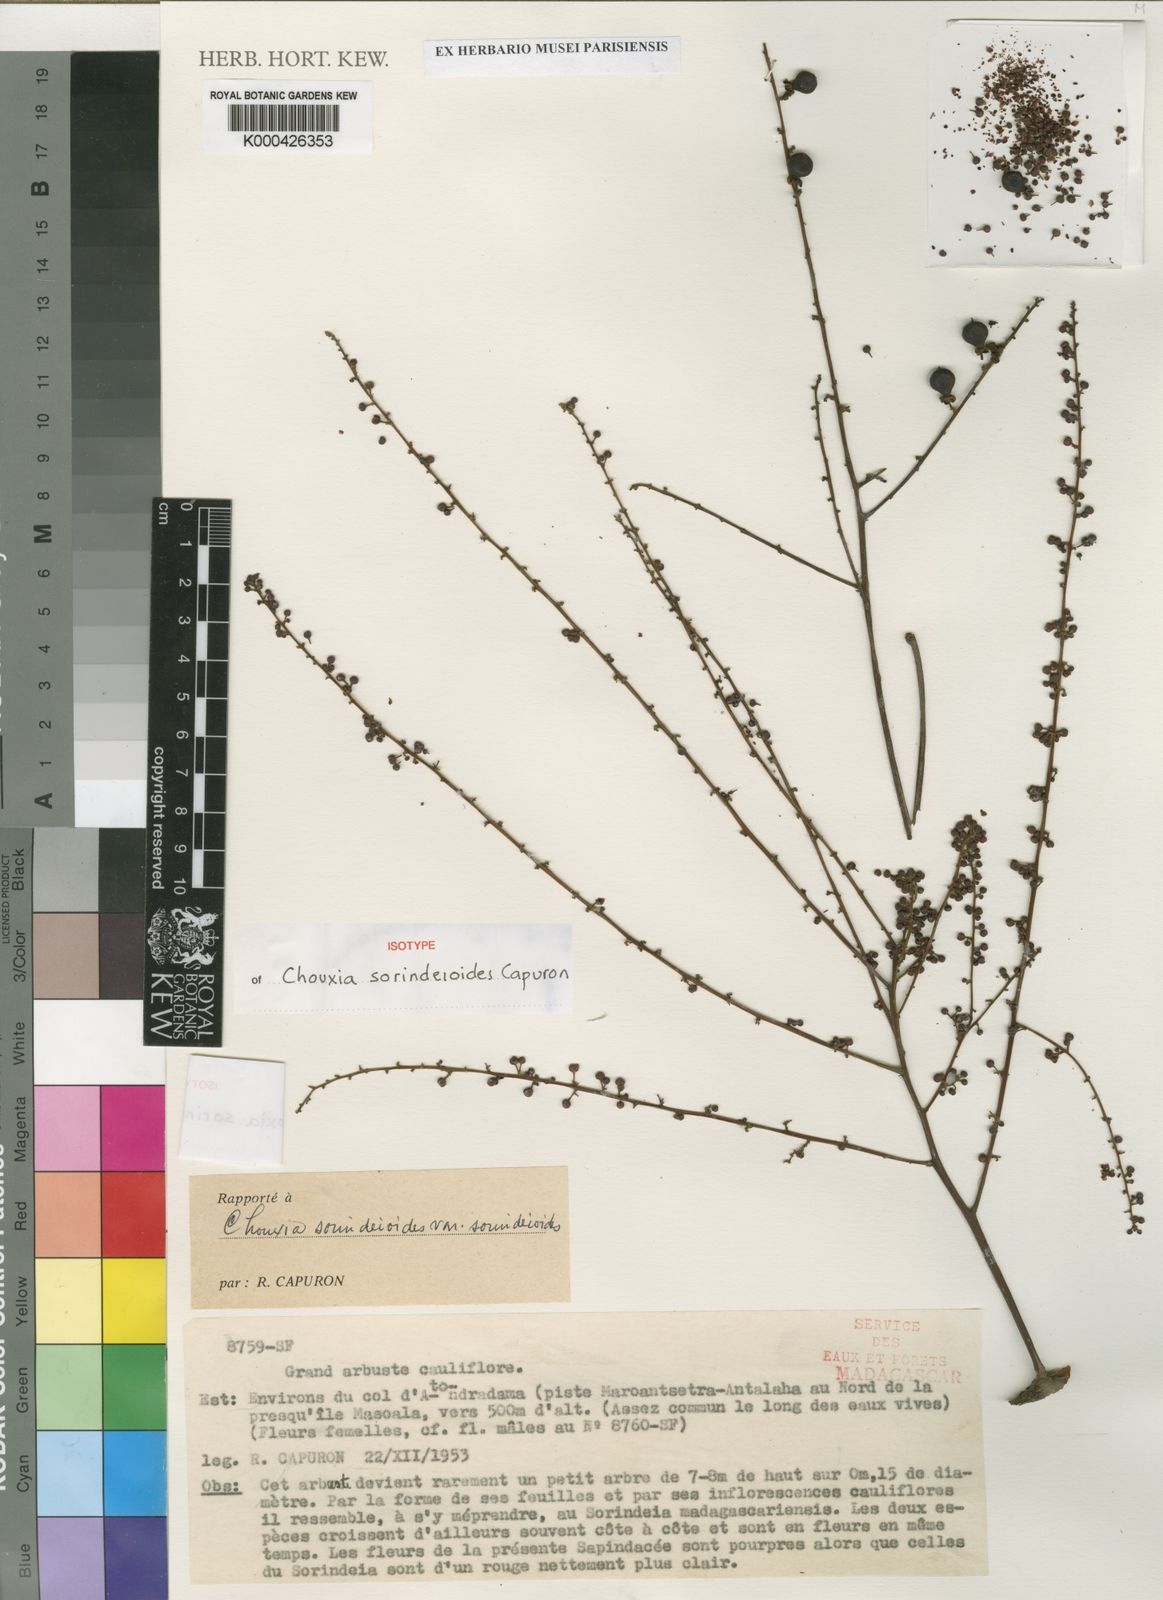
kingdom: Plantae
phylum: Tracheophyta
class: Magnoliopsida
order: Sapindales
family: Sapindaceae
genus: Chouxia
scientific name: Chouxia sorindeioides
